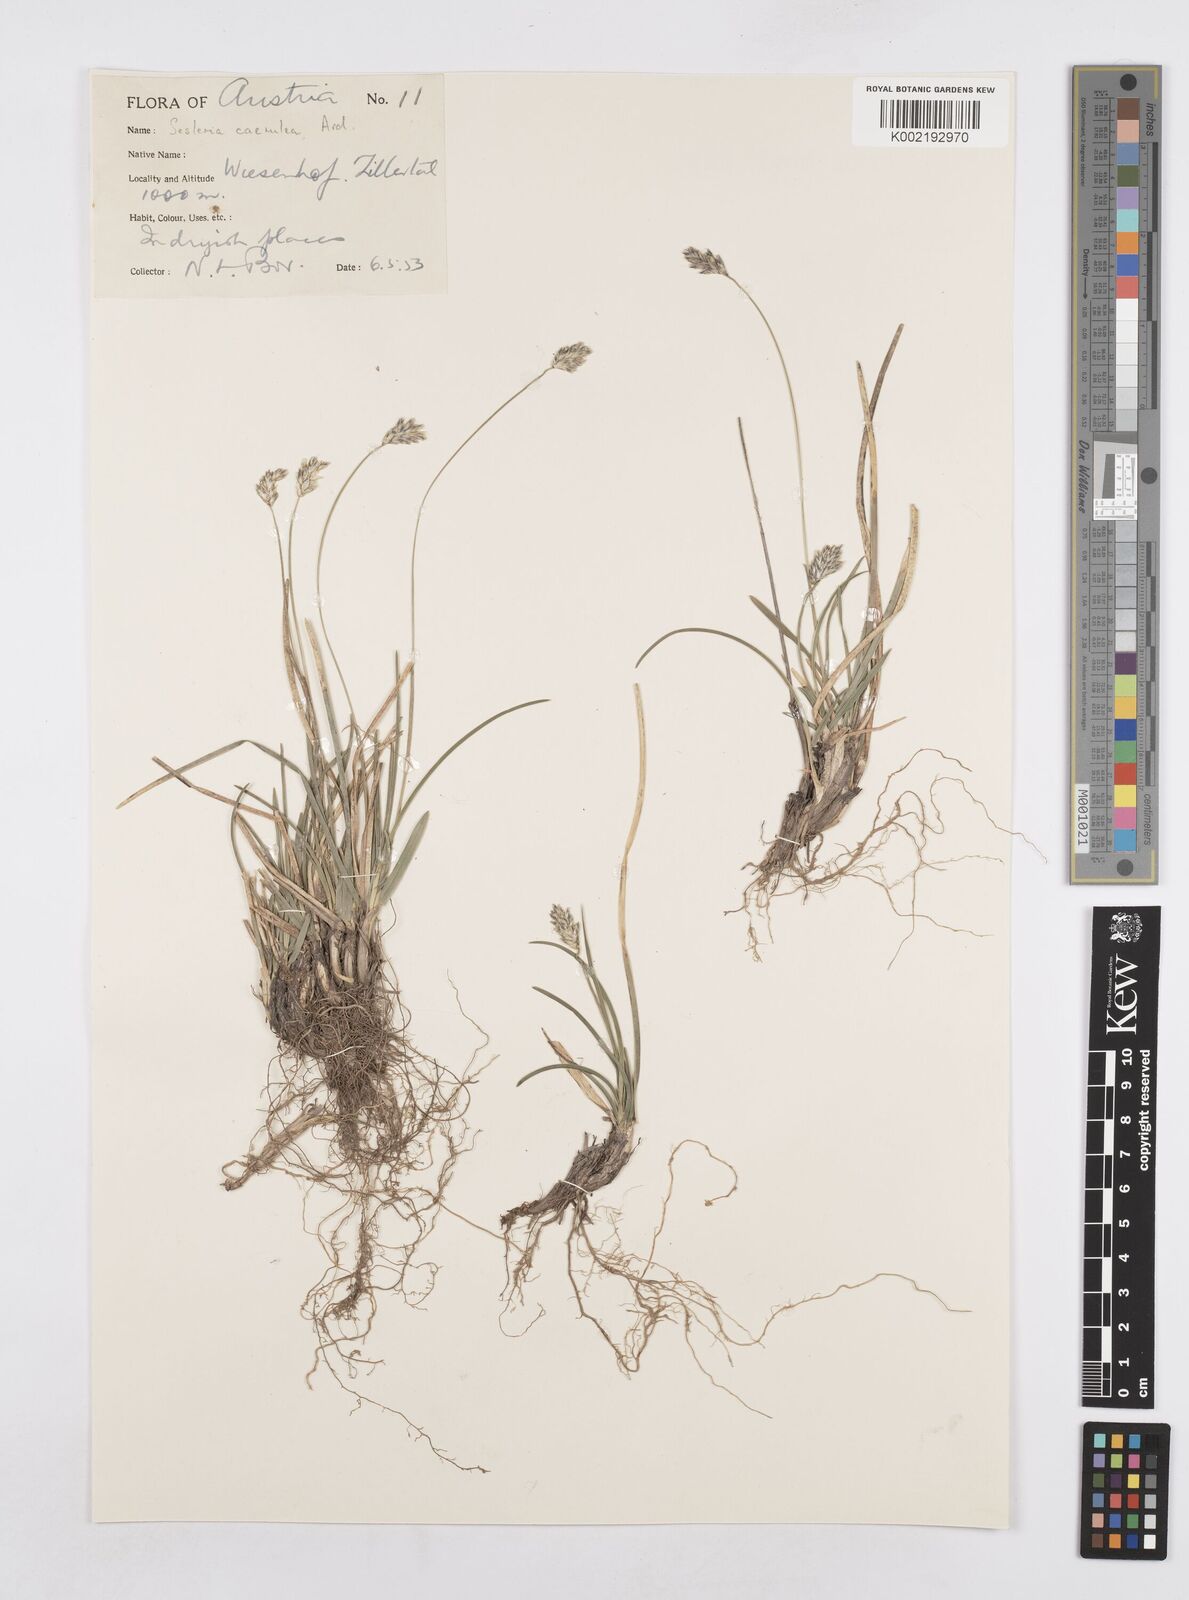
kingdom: Plantae
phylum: Tracheophyta
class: Liliopsida
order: Poales
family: Poaceae
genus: Sesleria
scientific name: Sesleria caerulea
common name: Blue moor-grass
